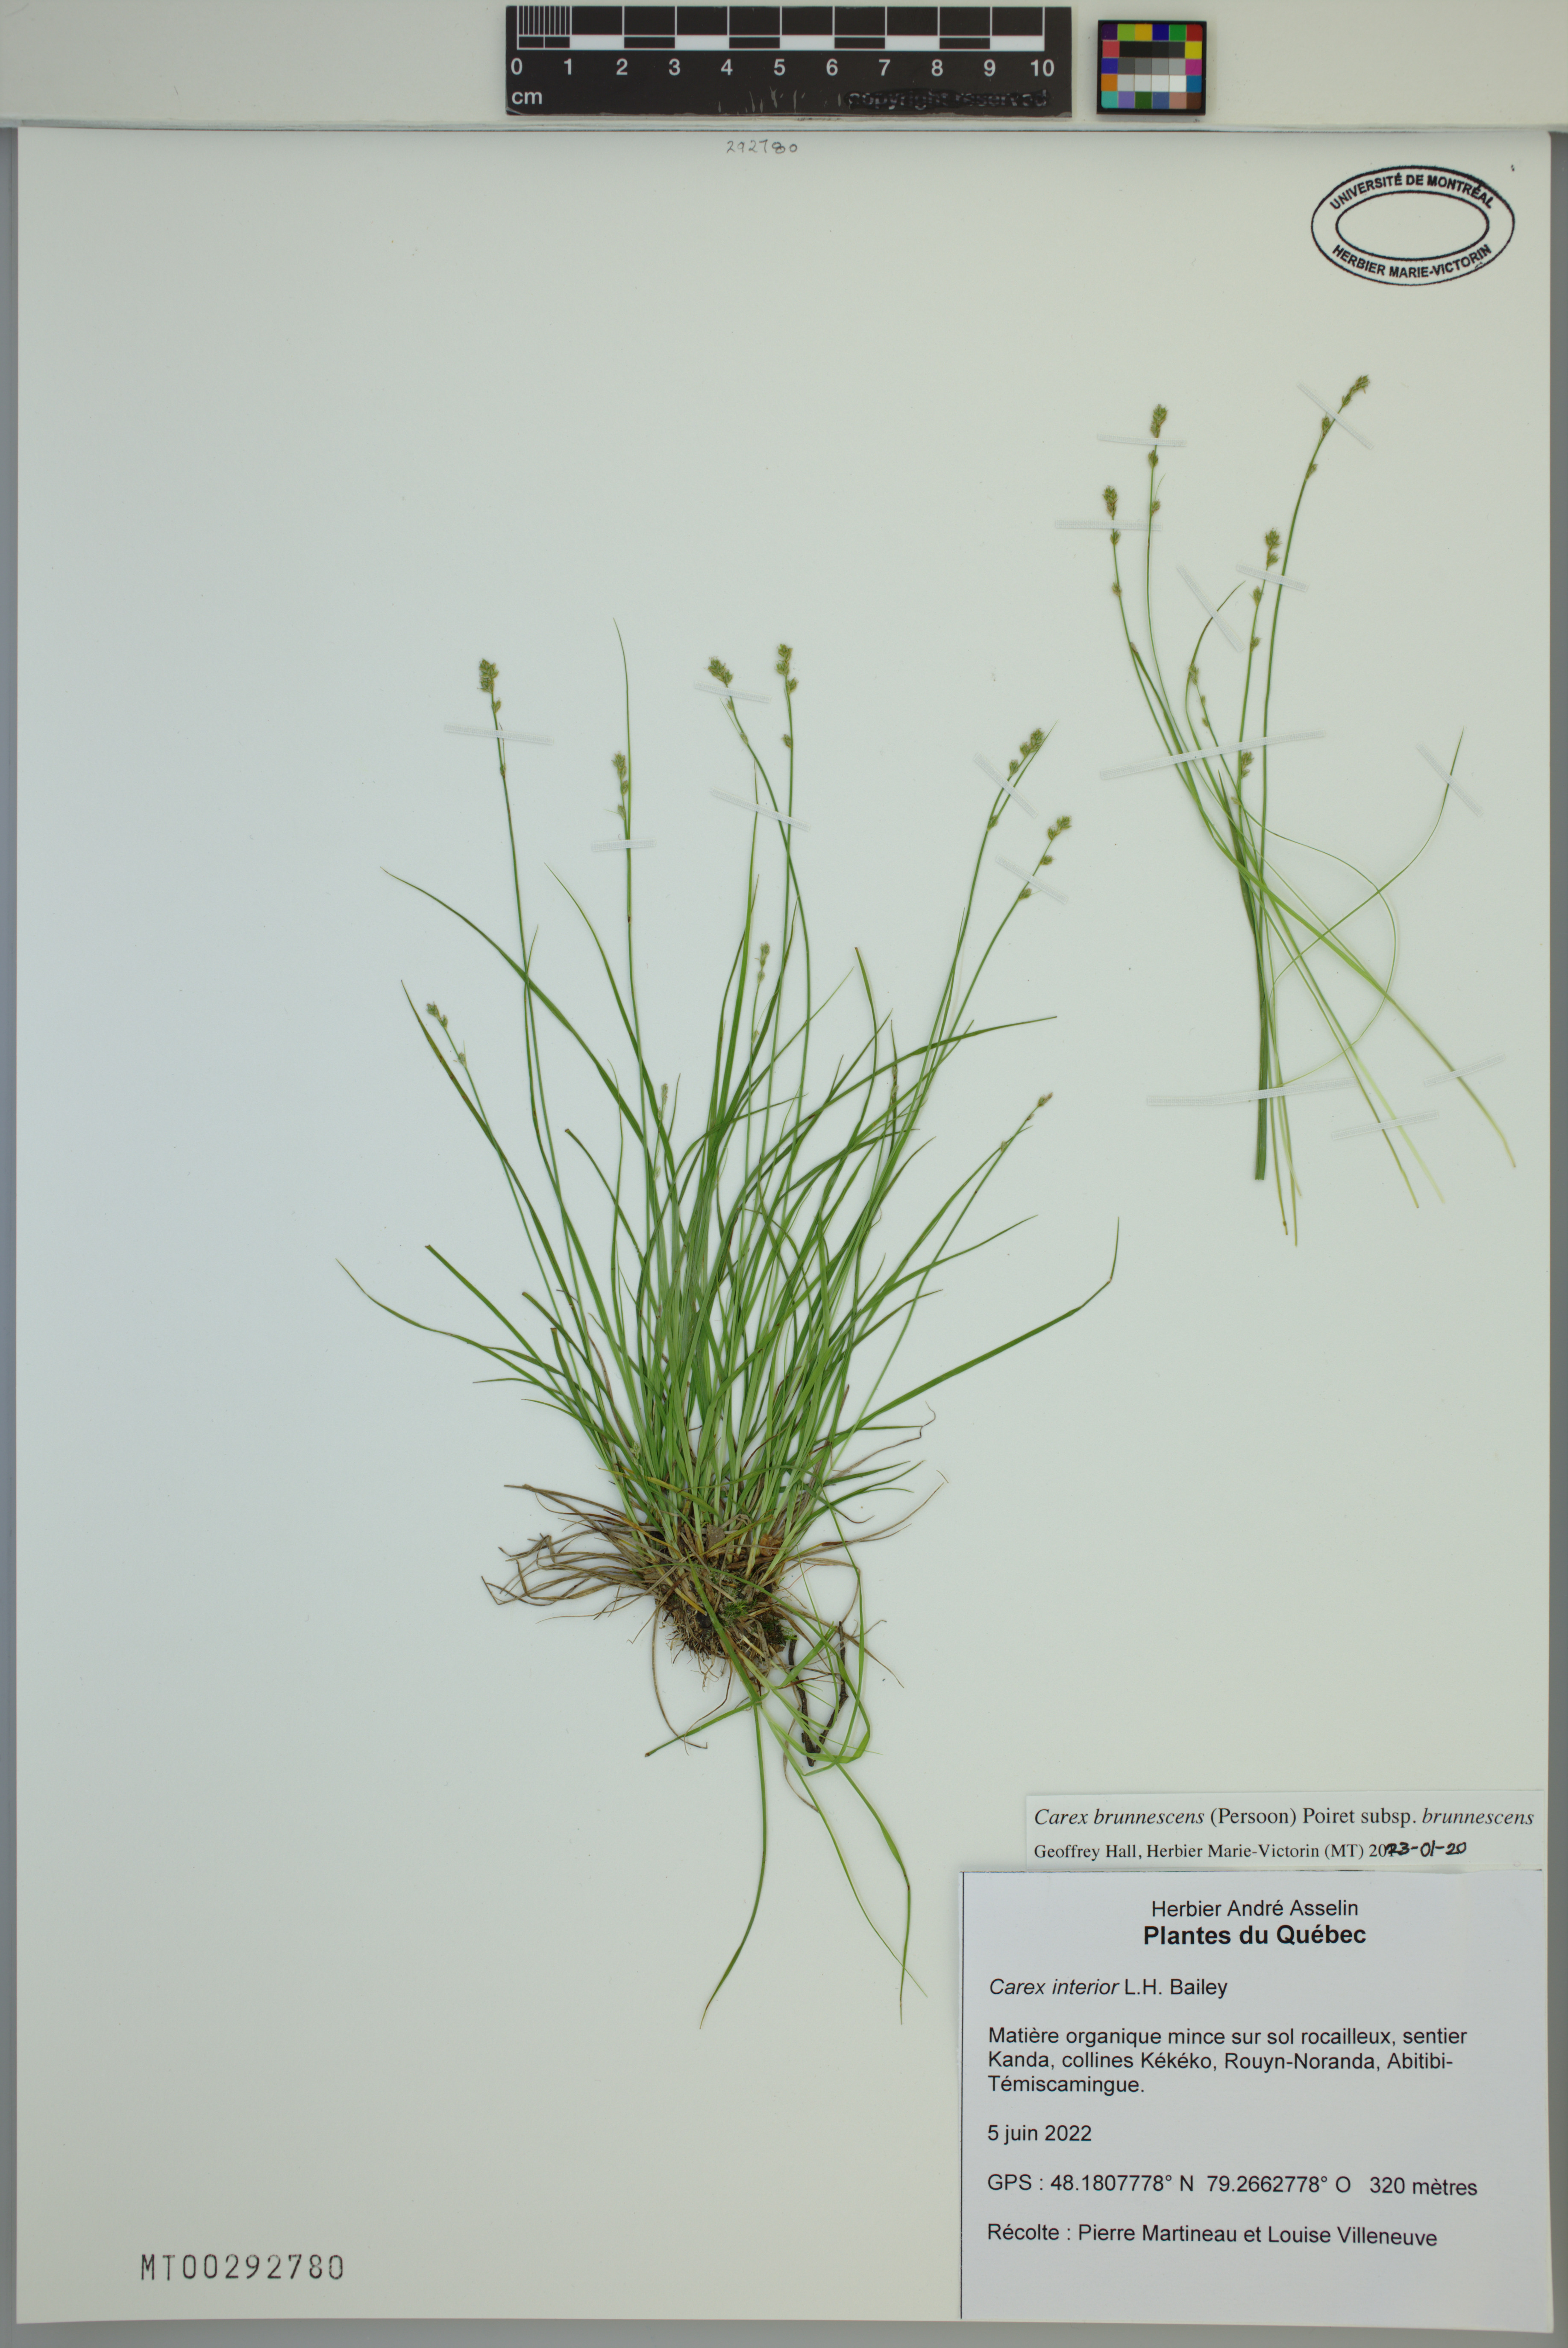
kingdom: Plantae
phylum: Tracheophyta
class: Liliopsida
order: Poales
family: Cyperaceae
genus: Carex
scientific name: Carex brunnescens
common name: Brown sedge
